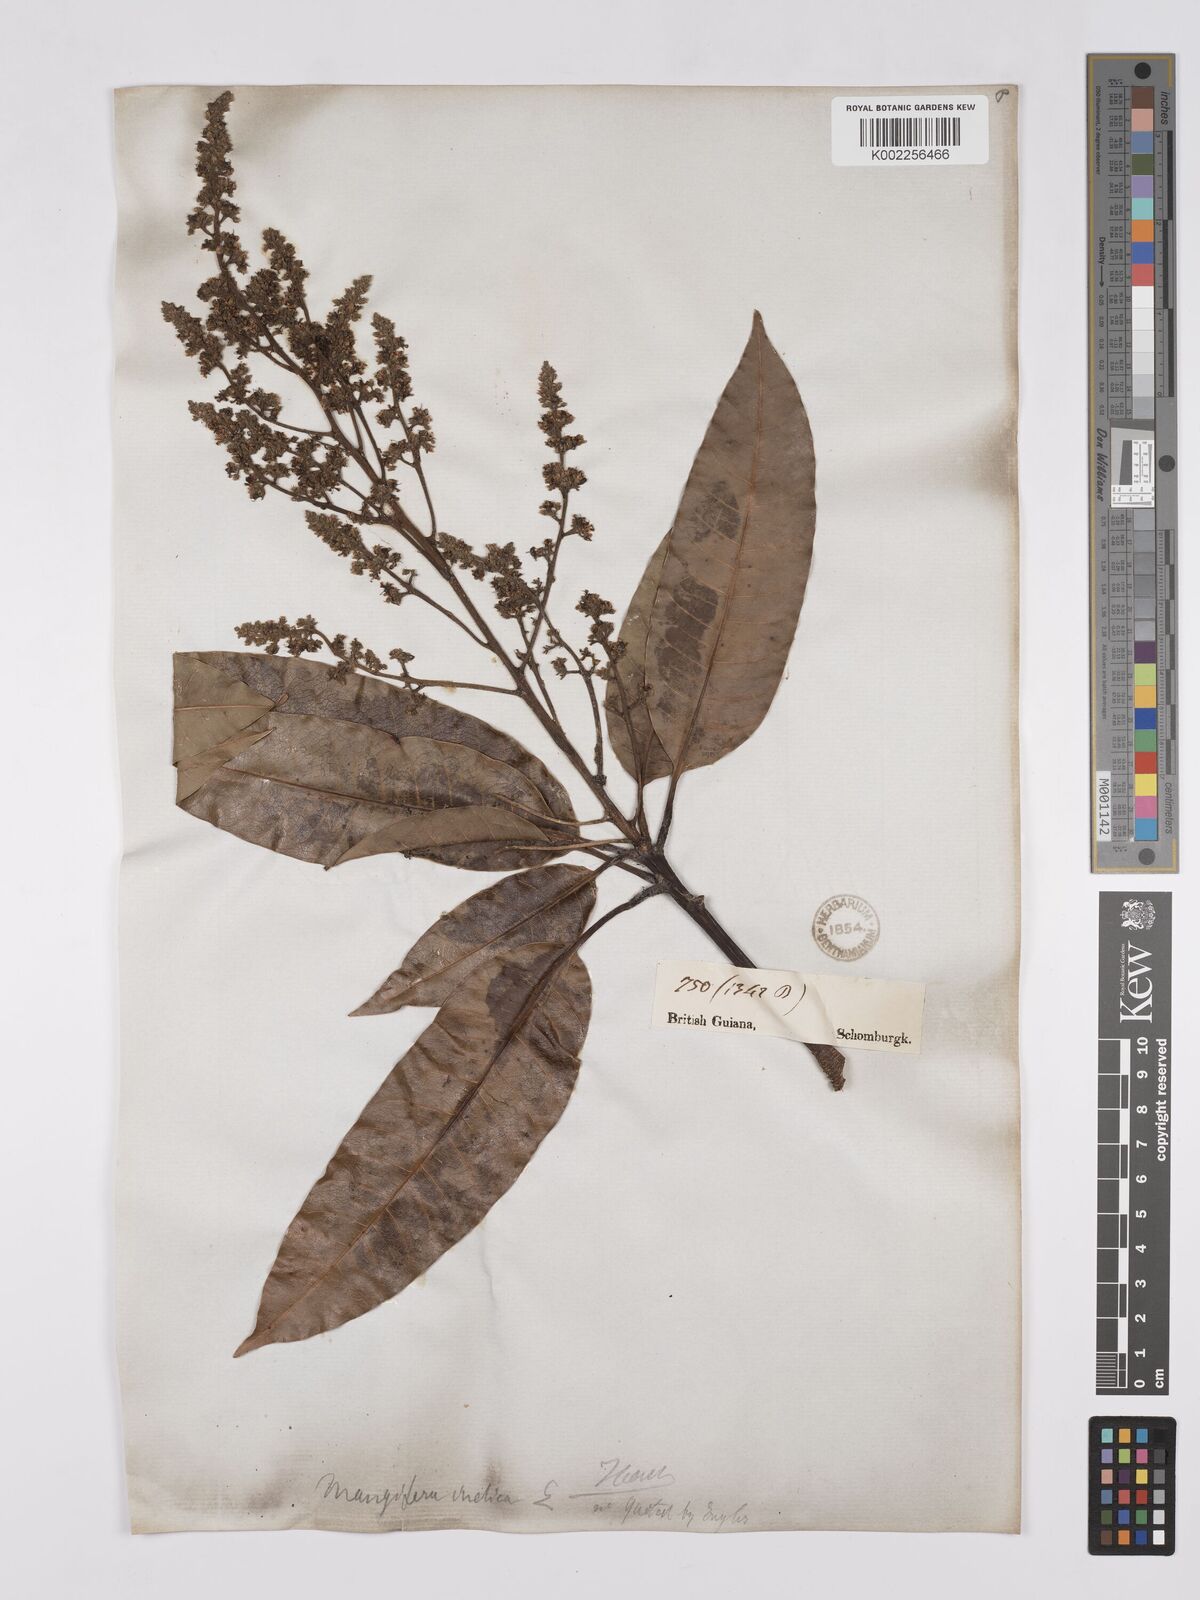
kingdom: Plantae
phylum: Tracheophyta
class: Magnoliopsida
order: Sapindales
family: Anacardiaceae
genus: Mangifera
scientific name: Mangifera indica
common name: Mango
